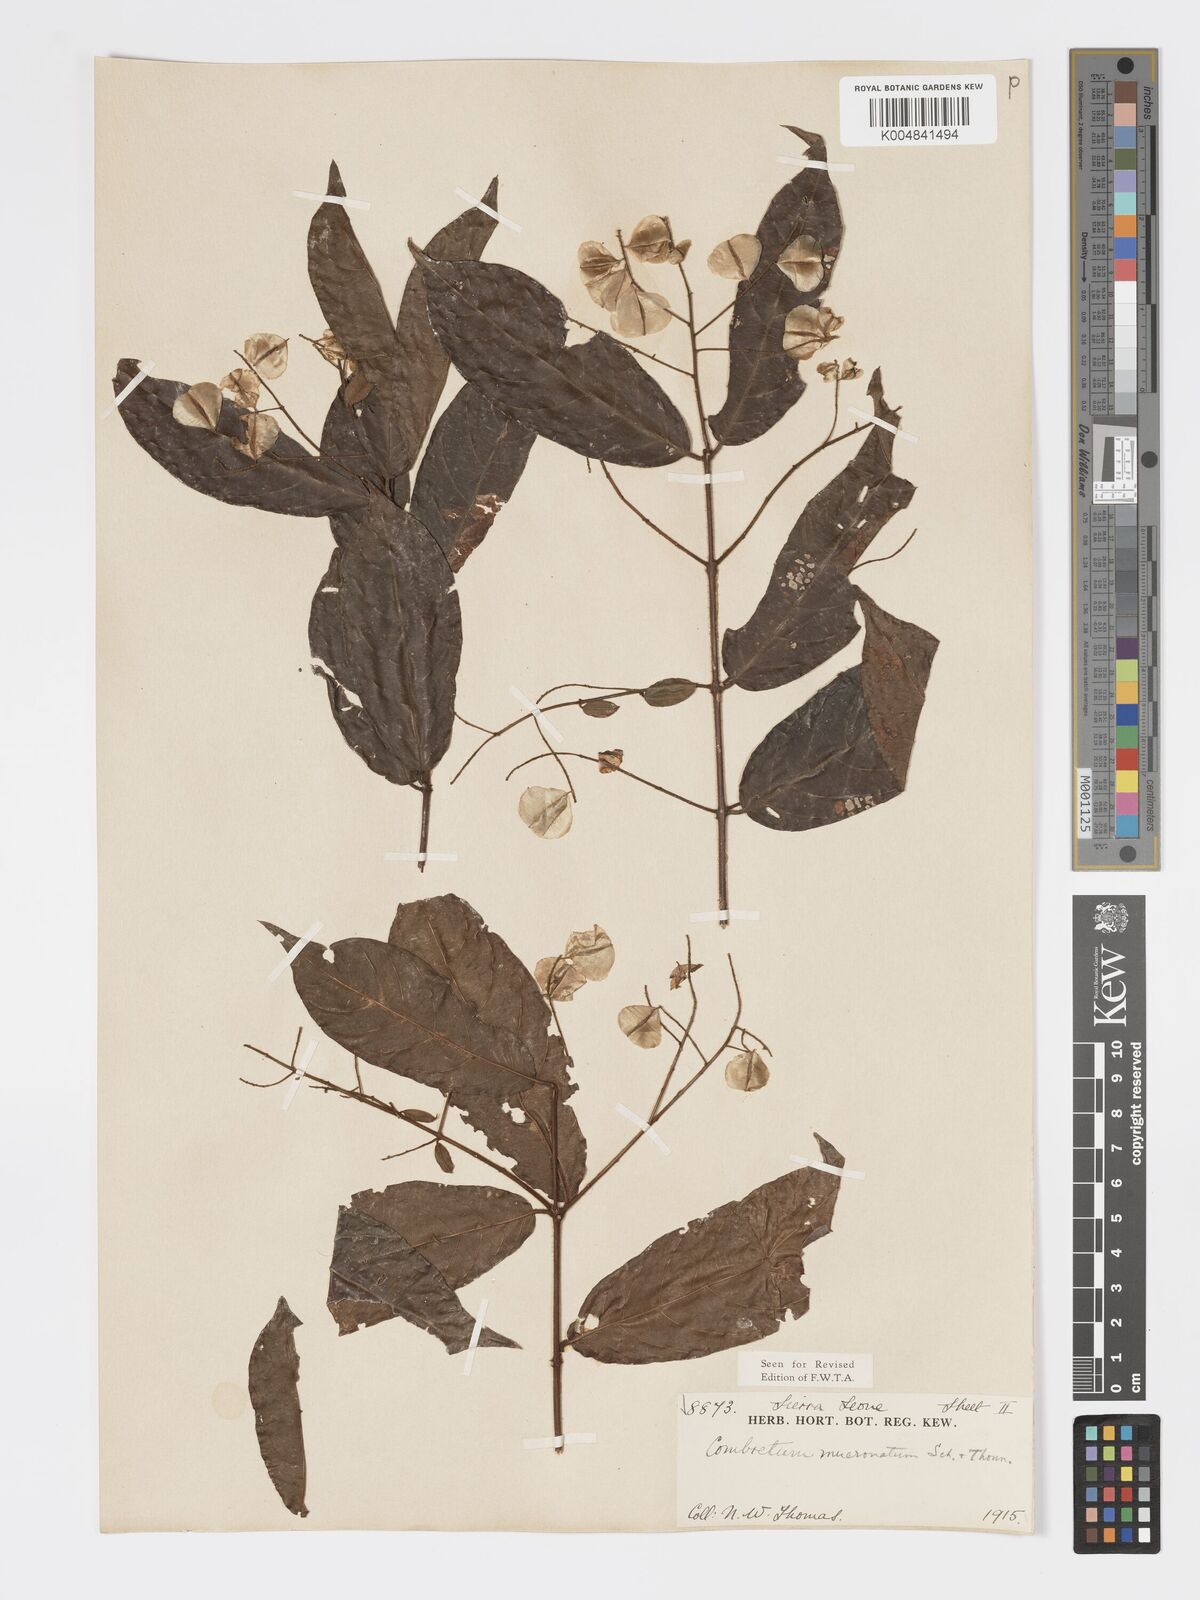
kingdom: Plantae
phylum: Tracheophyta
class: Magnoliopsida
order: Myrtales
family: Combretaceae
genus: Combretum
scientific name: Combretum mucronatum
